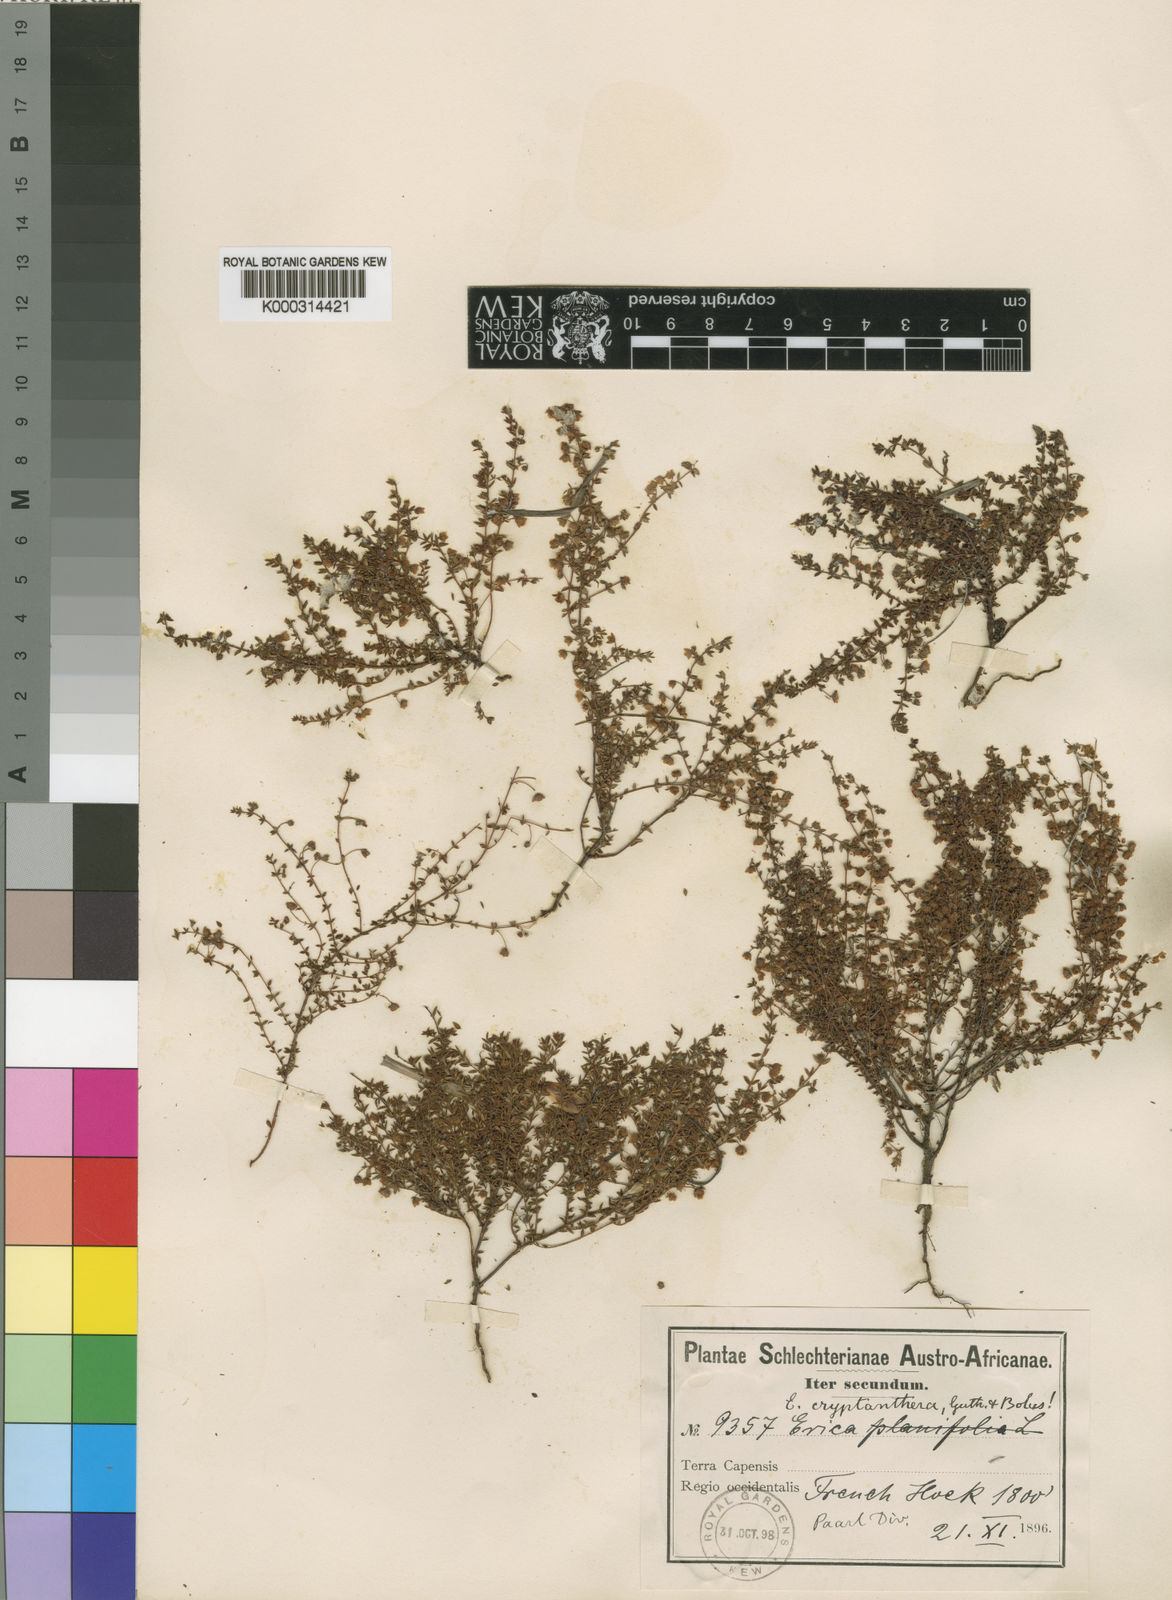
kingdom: Plantae
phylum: Tracheophyta
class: Magnoliopsida
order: Ericales
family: Ericaceae
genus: Erica
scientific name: Erica cryptanthera
